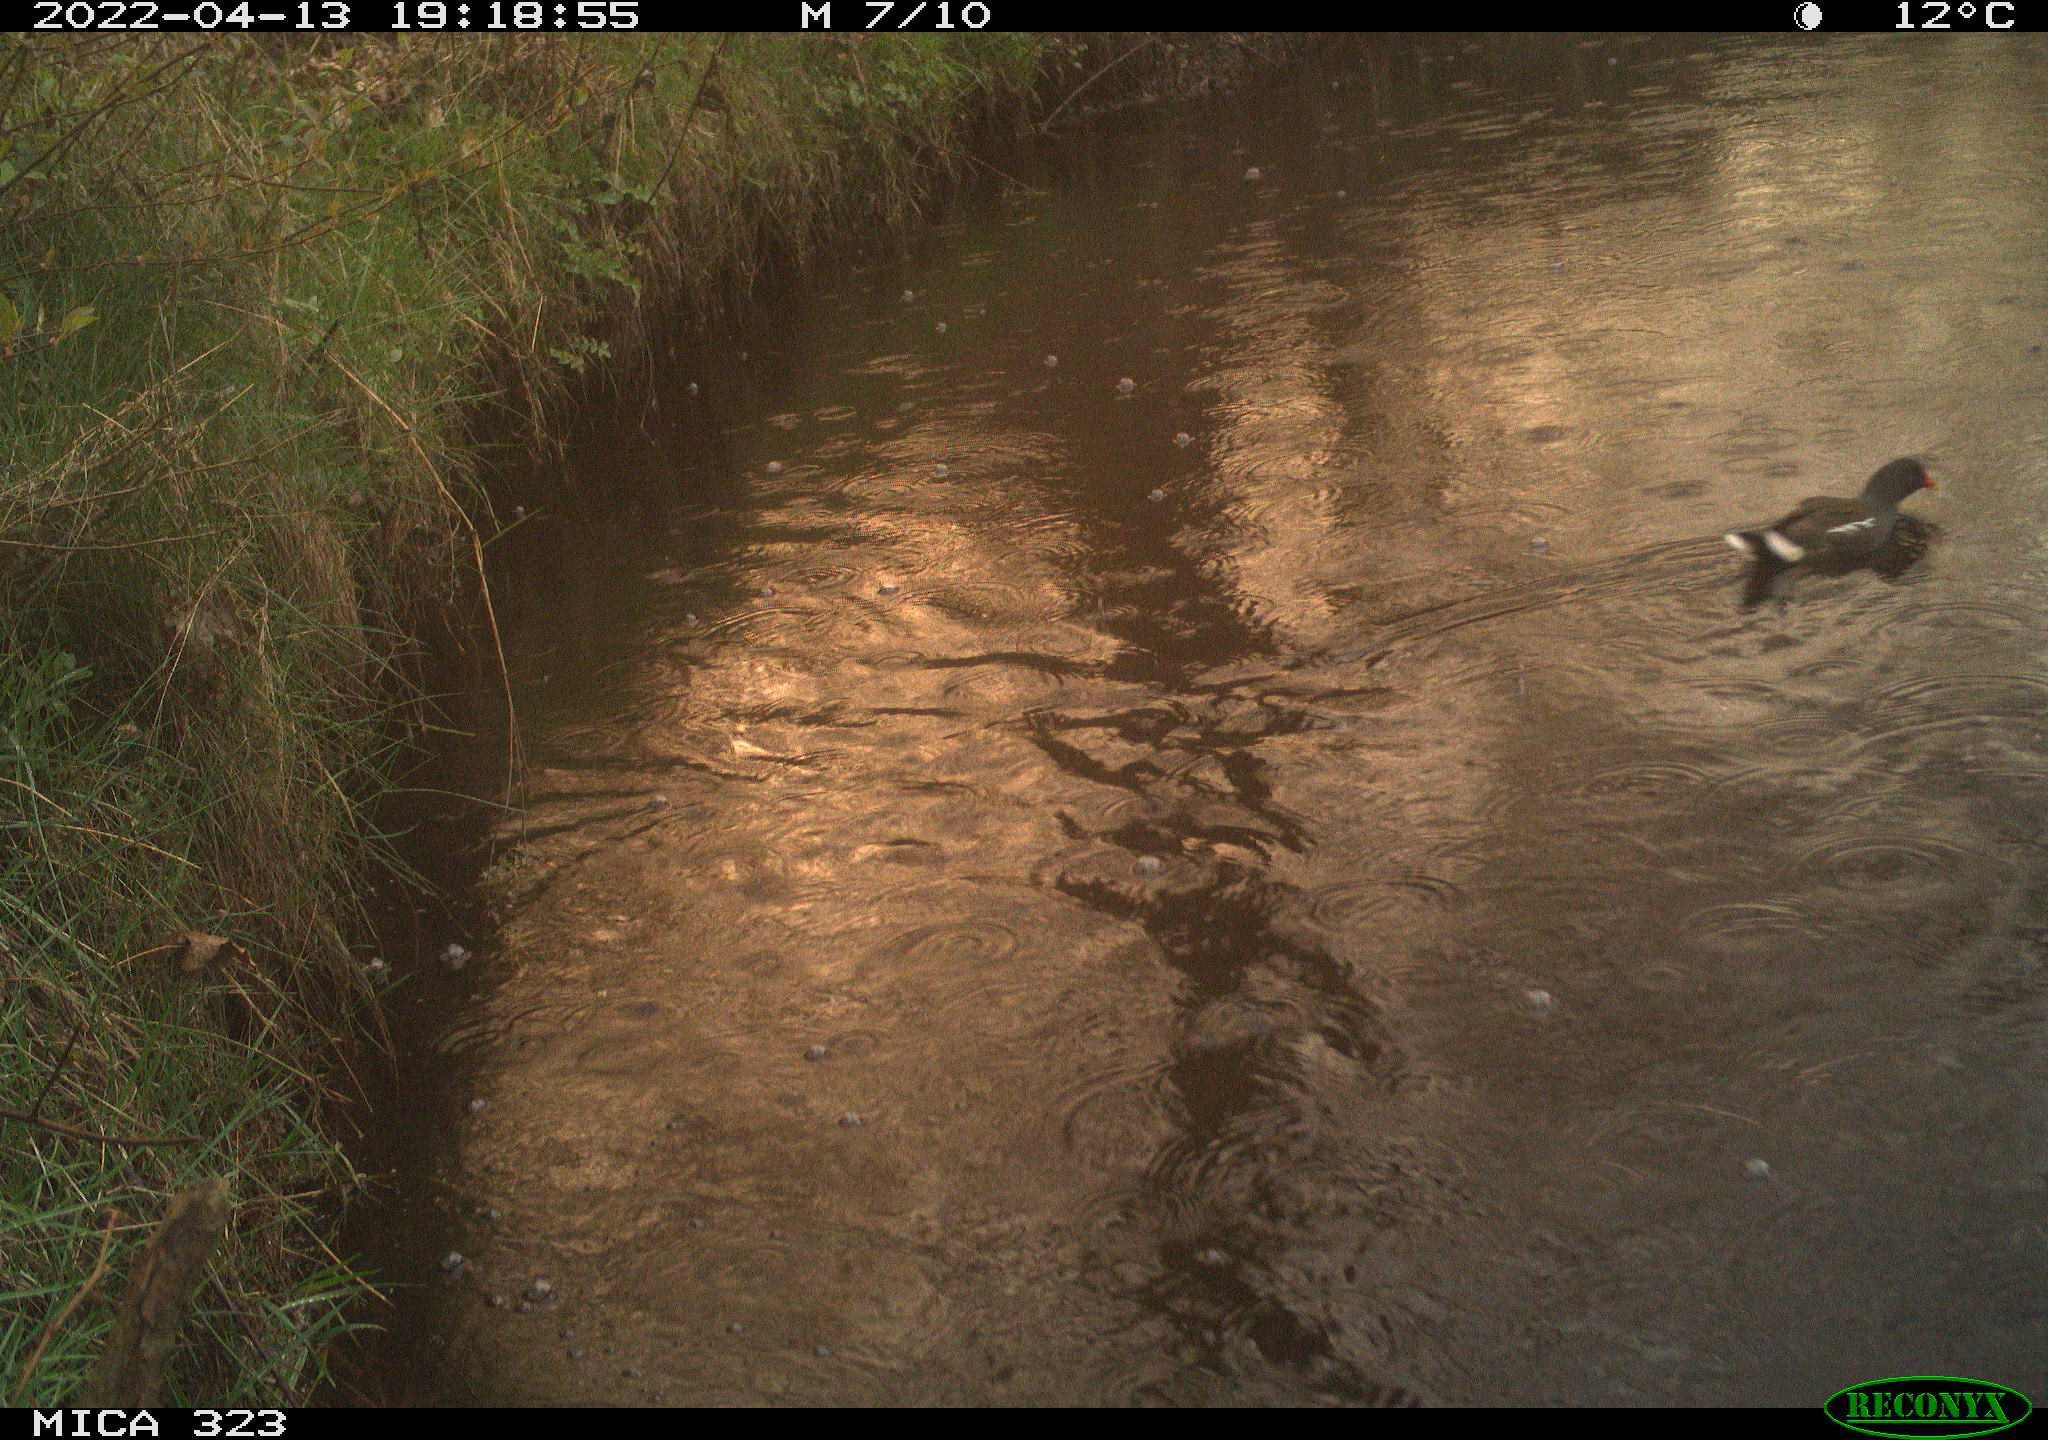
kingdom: Animalia
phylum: Chordata
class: Aves
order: Gruiformes
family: Rallidae
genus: Gallinula
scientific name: Gallinula chloropus
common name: Common moorhen
